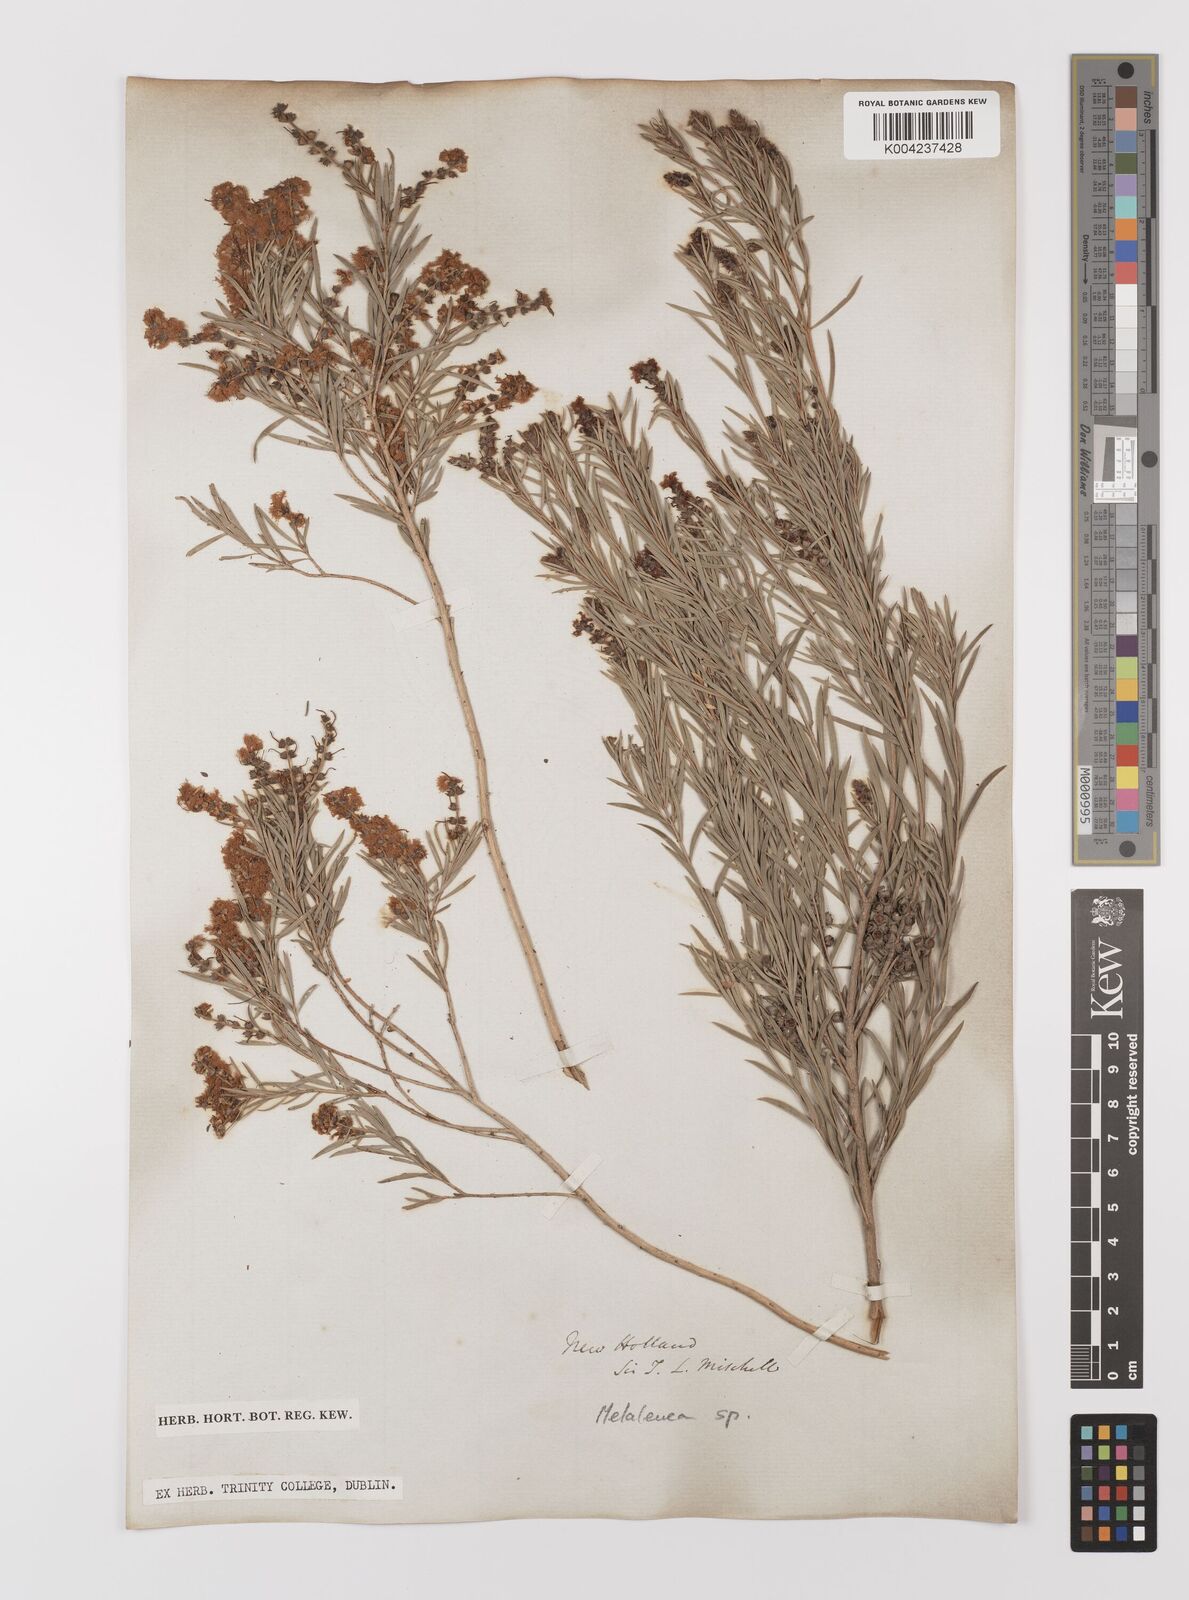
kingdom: Plantae
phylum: Tracheophyta
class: Magnoliopsida
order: Myrtales
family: Myrtaceae
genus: Melaleuca
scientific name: Melaleuca
